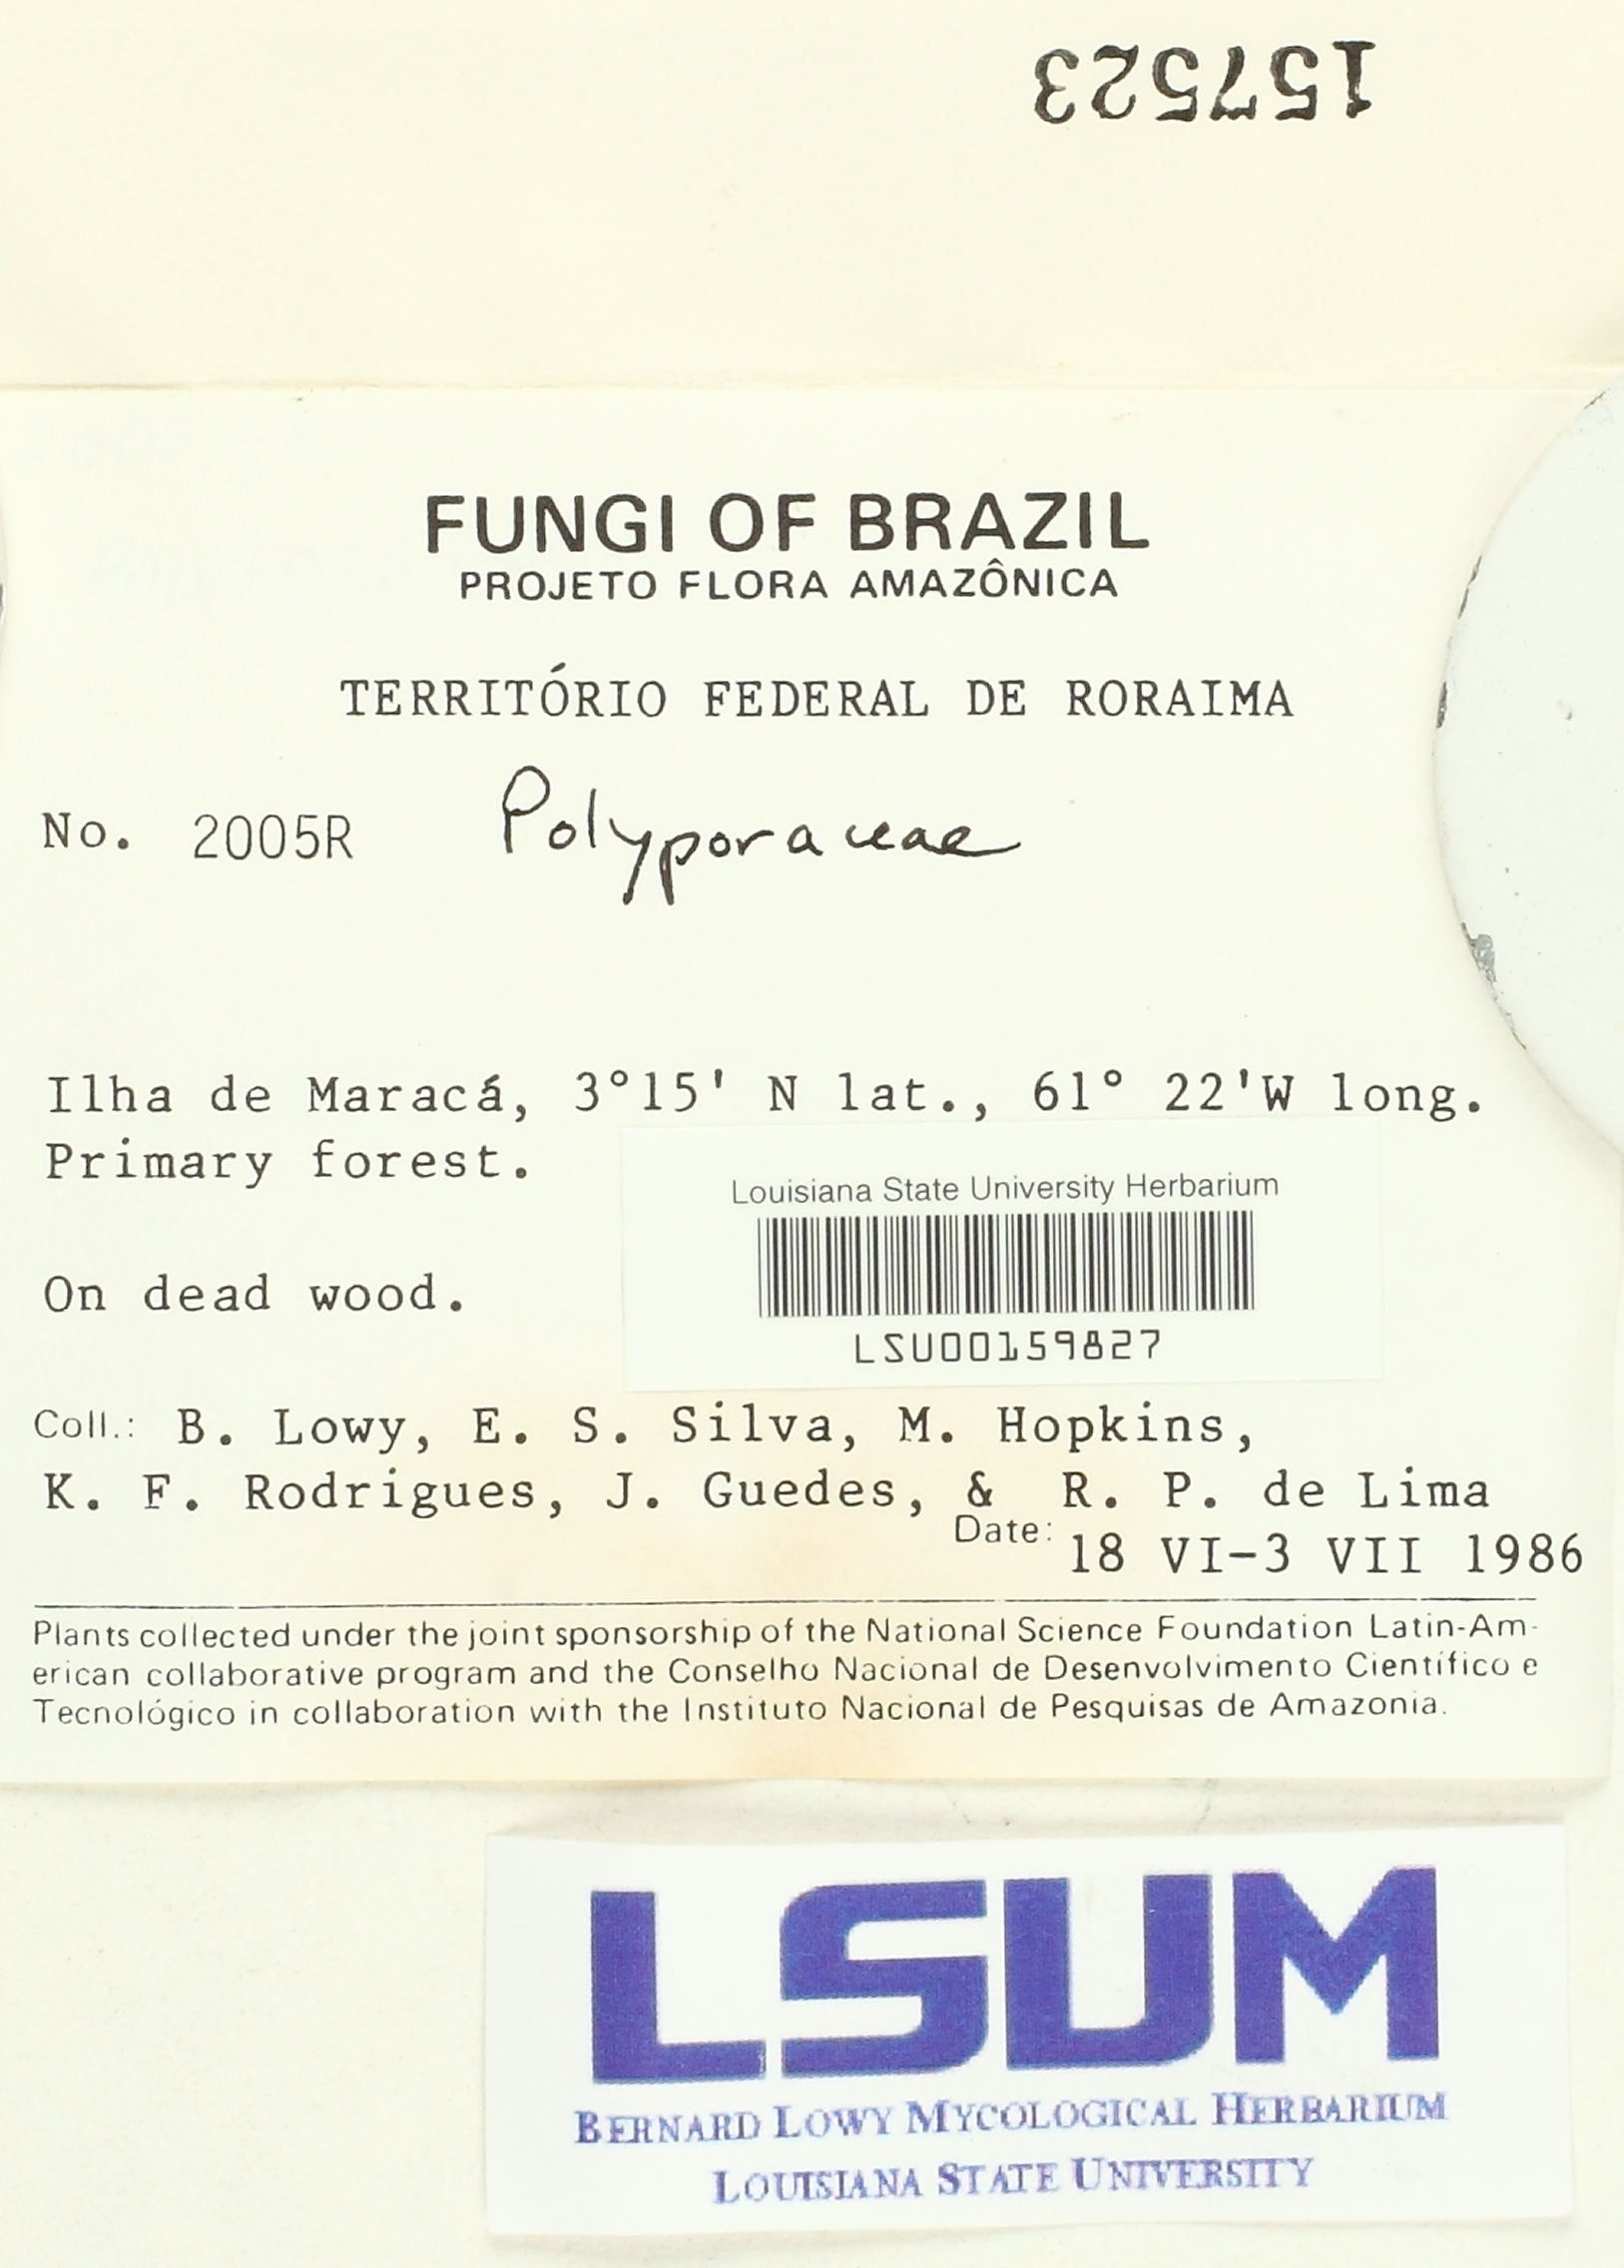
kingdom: Fungi
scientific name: Fungi
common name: Fungi
